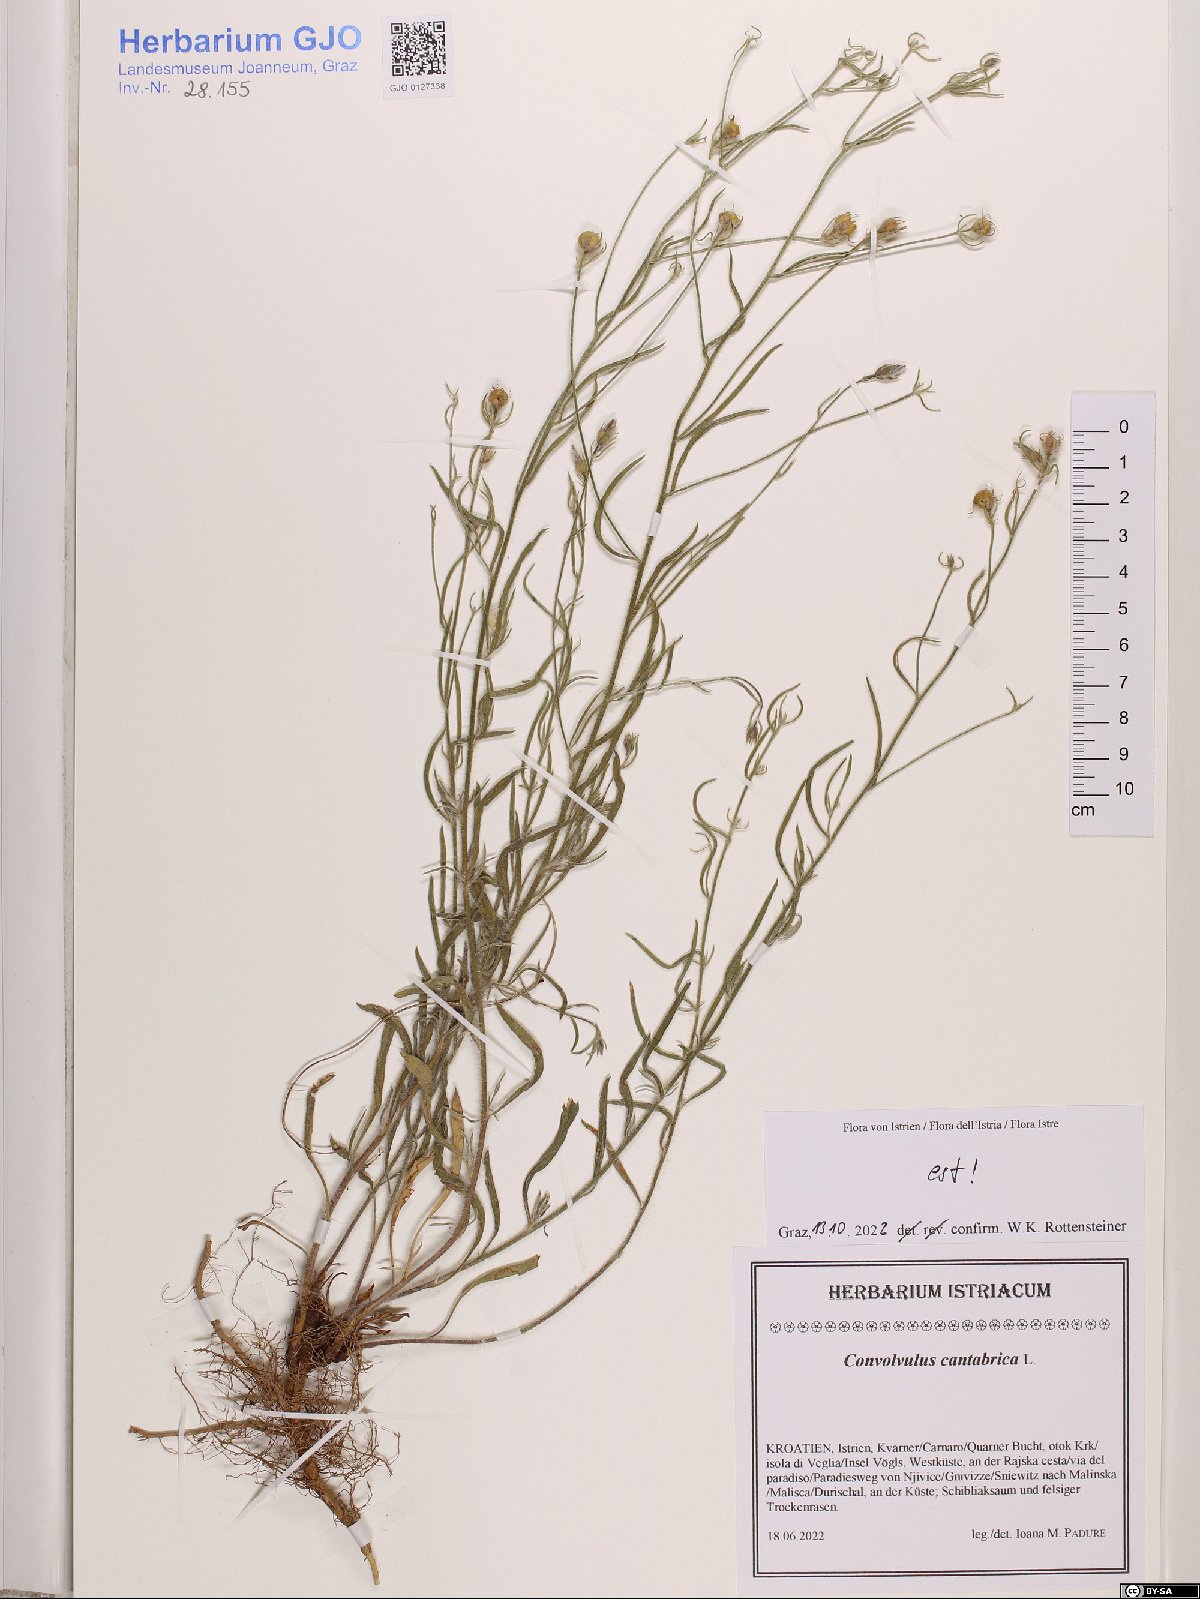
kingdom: Plantae
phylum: Tracheophyta
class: Magnoliopsida
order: Solanales
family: Convolvulaceae
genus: Convolvulus
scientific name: Convolvulus cantabrica
